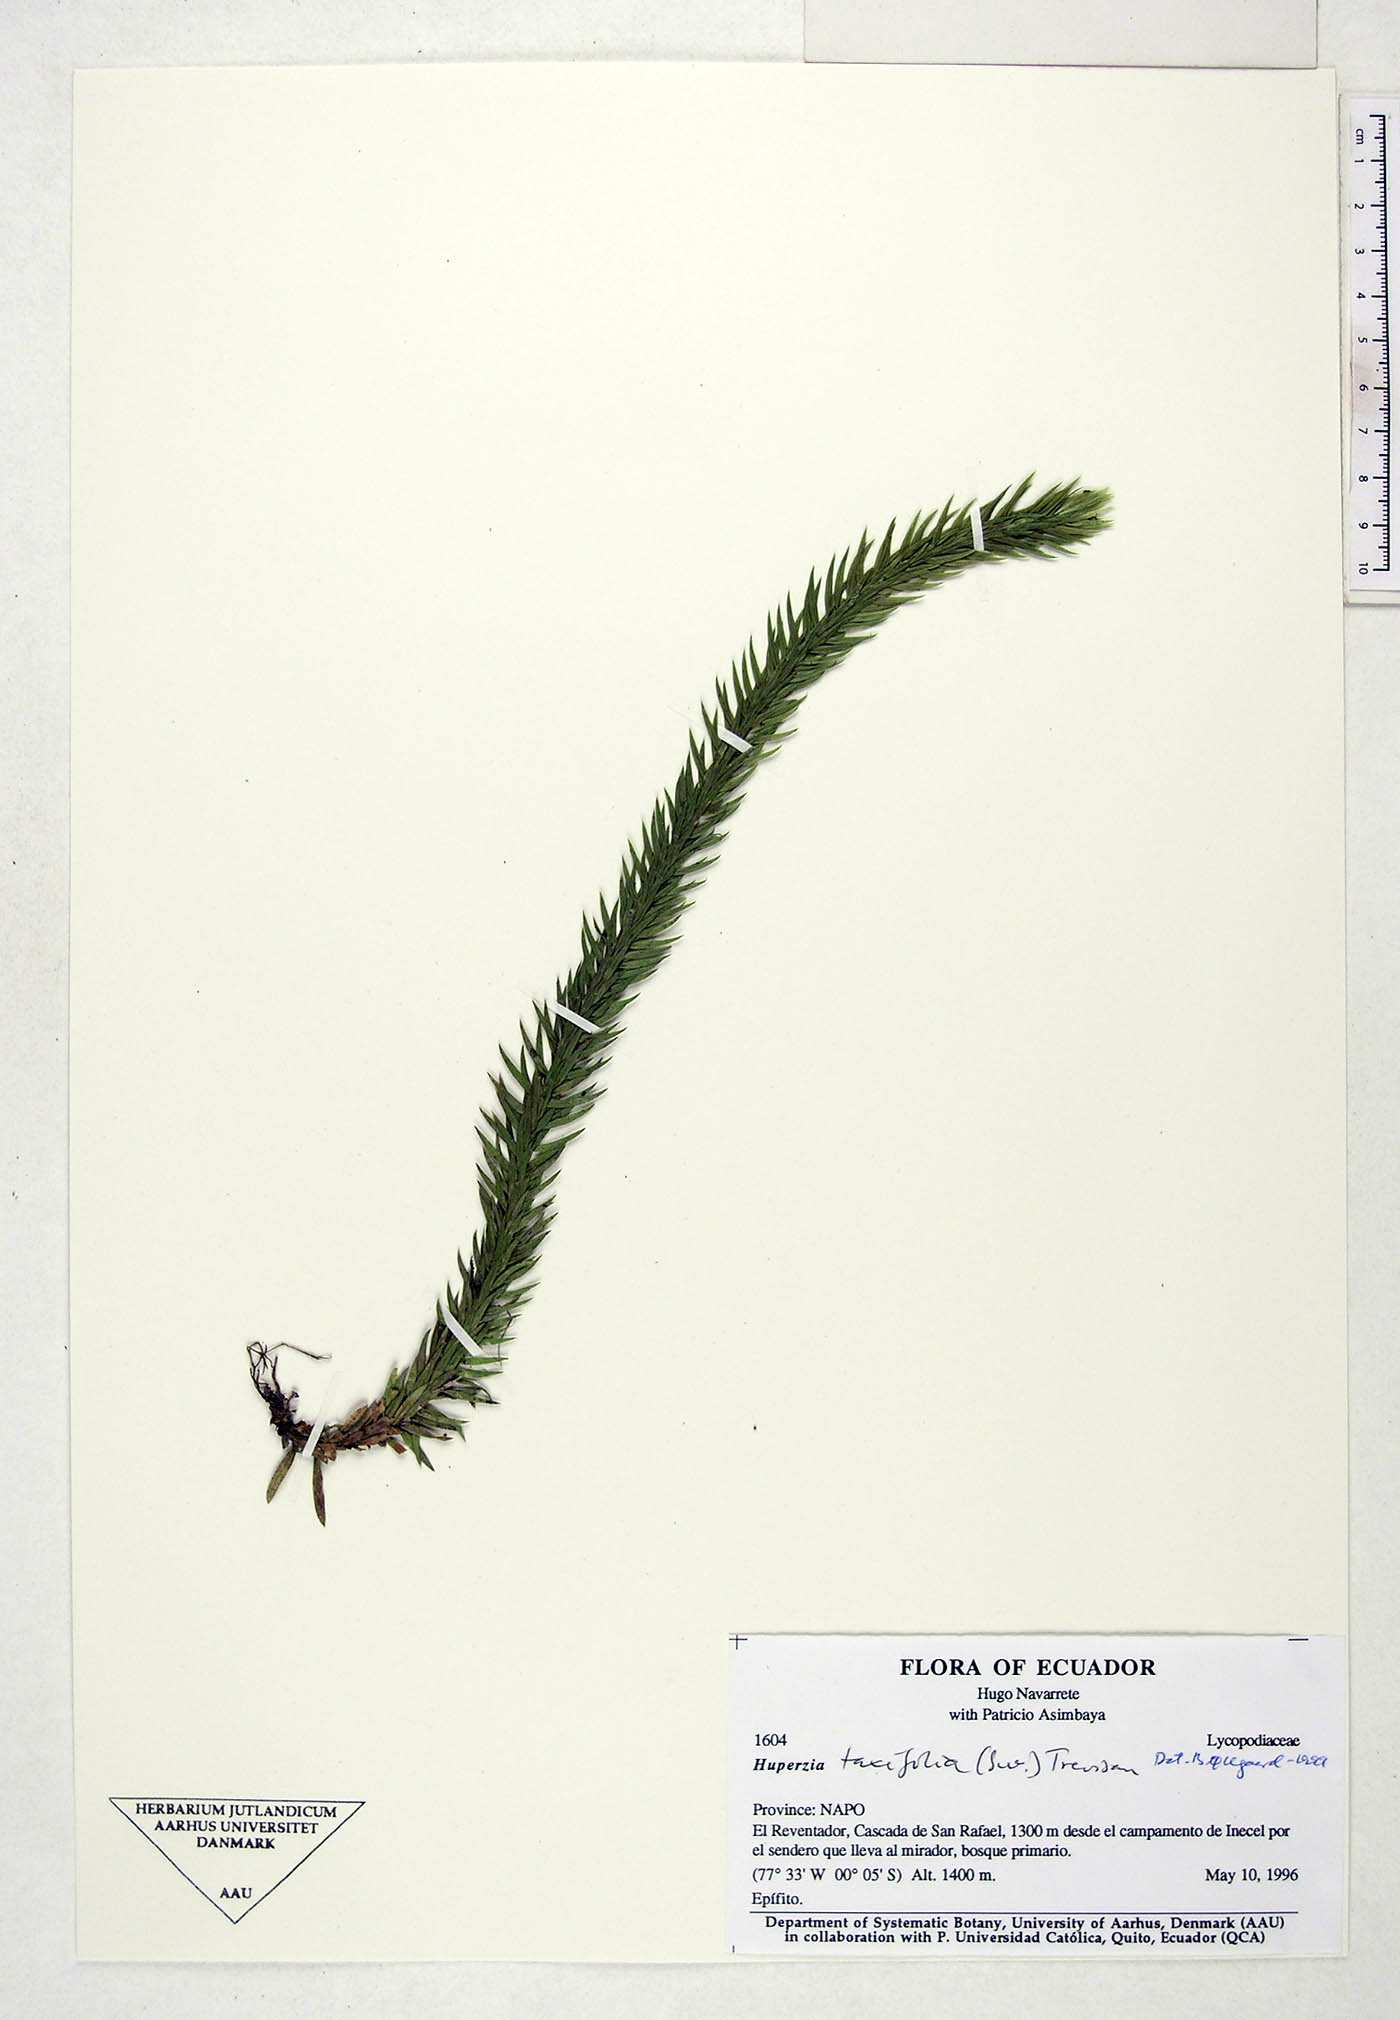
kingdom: Plantae
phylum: Tracheophyta
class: Lycopodiopsida
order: Lycopodiales
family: Lycopodiaceae
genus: Phlegmariurus
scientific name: Phlegmariurus taxifolius
